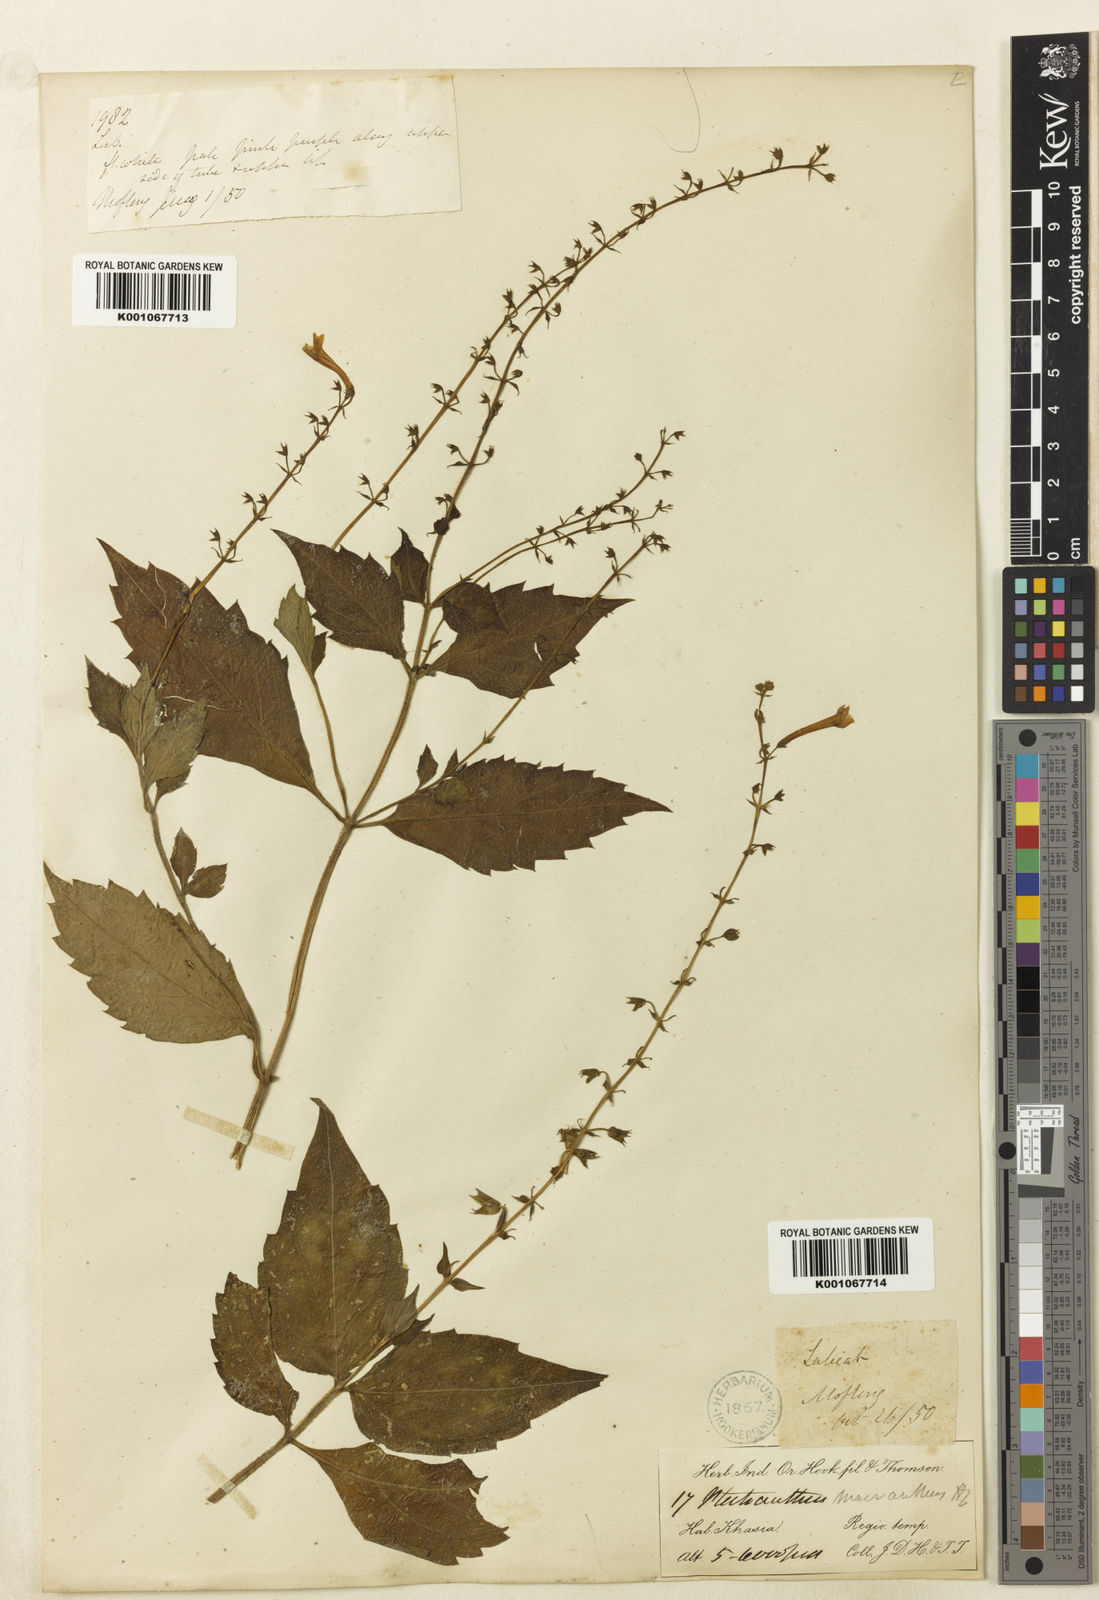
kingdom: Plantae
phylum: Tracheophyta
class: Magnoliopsida
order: Lamiales
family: Lamiaceae
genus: Siphocranion
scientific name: Siphocranion macranthum
